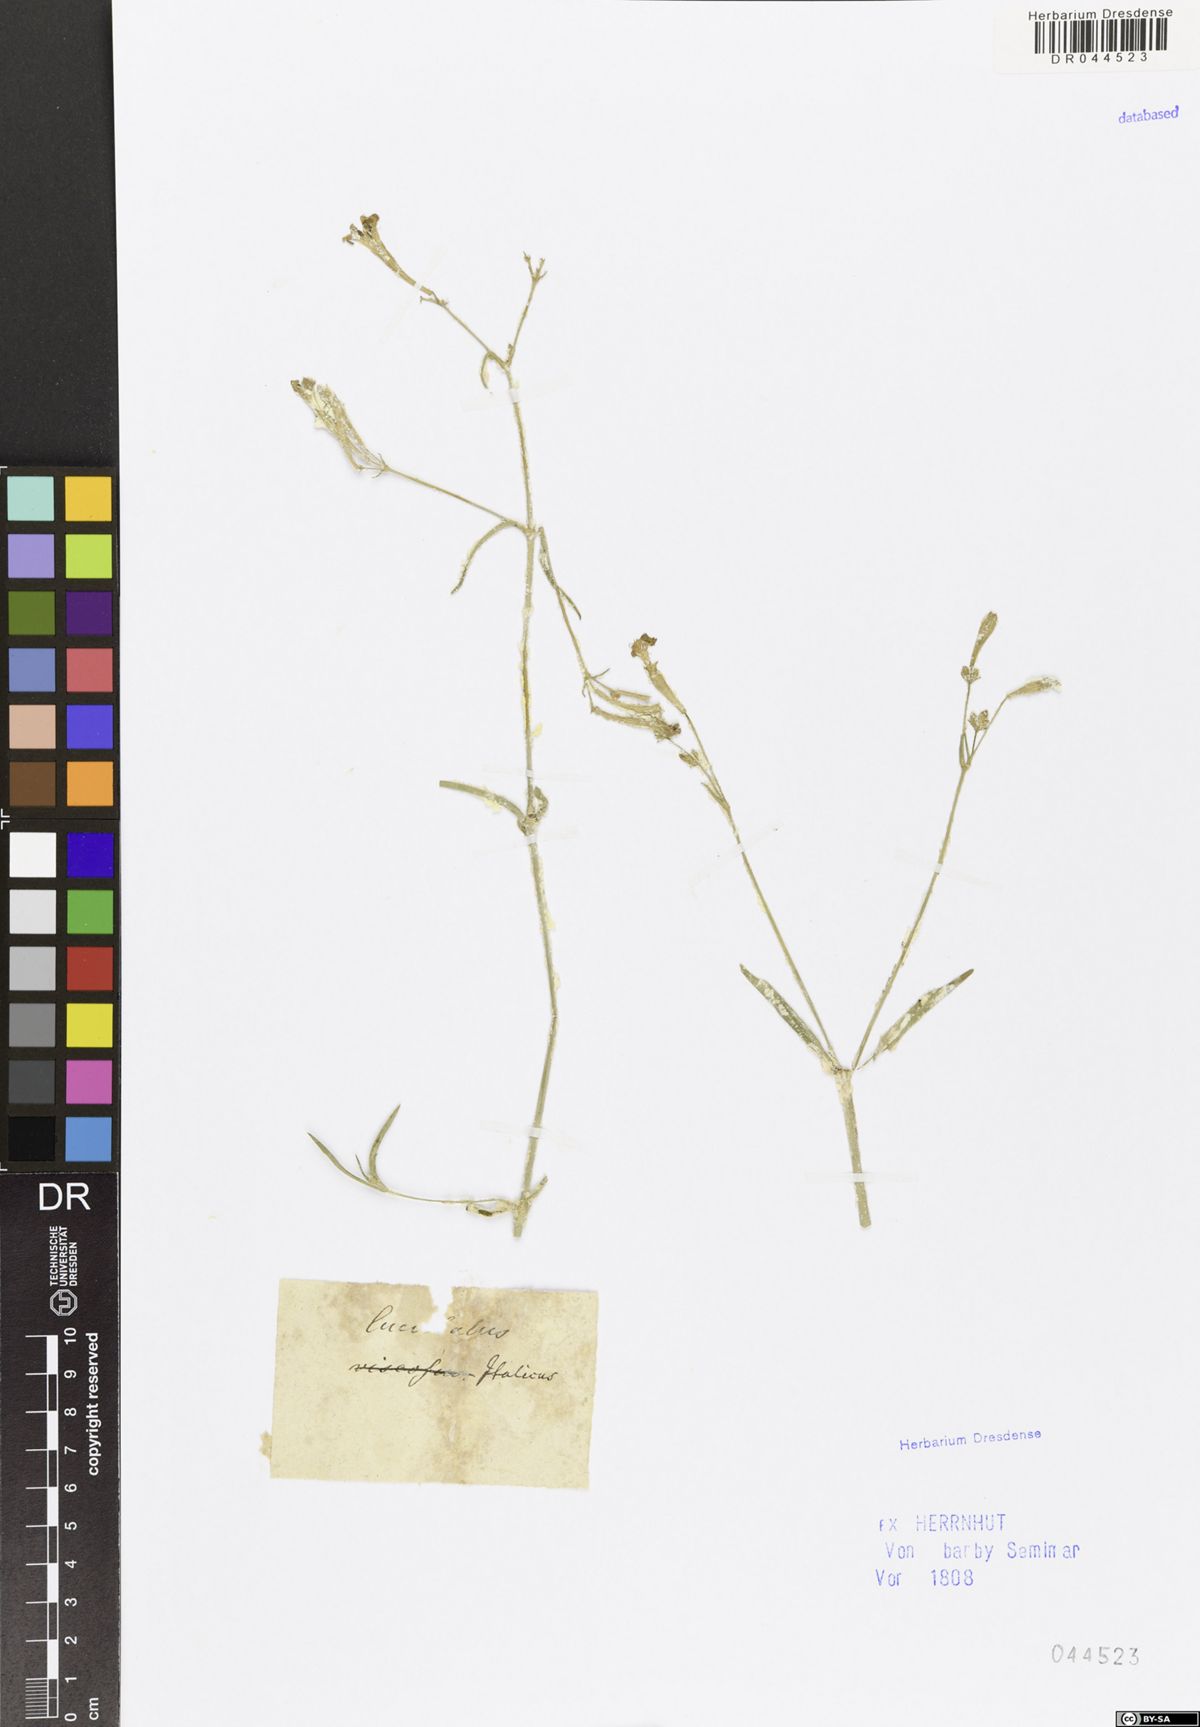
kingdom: Plantae
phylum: Tracheophyta
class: Magnoliopsida
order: Caryophyllales
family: Caryophyllaceae
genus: Silene
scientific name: Silene italica
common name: Italian catchfly
